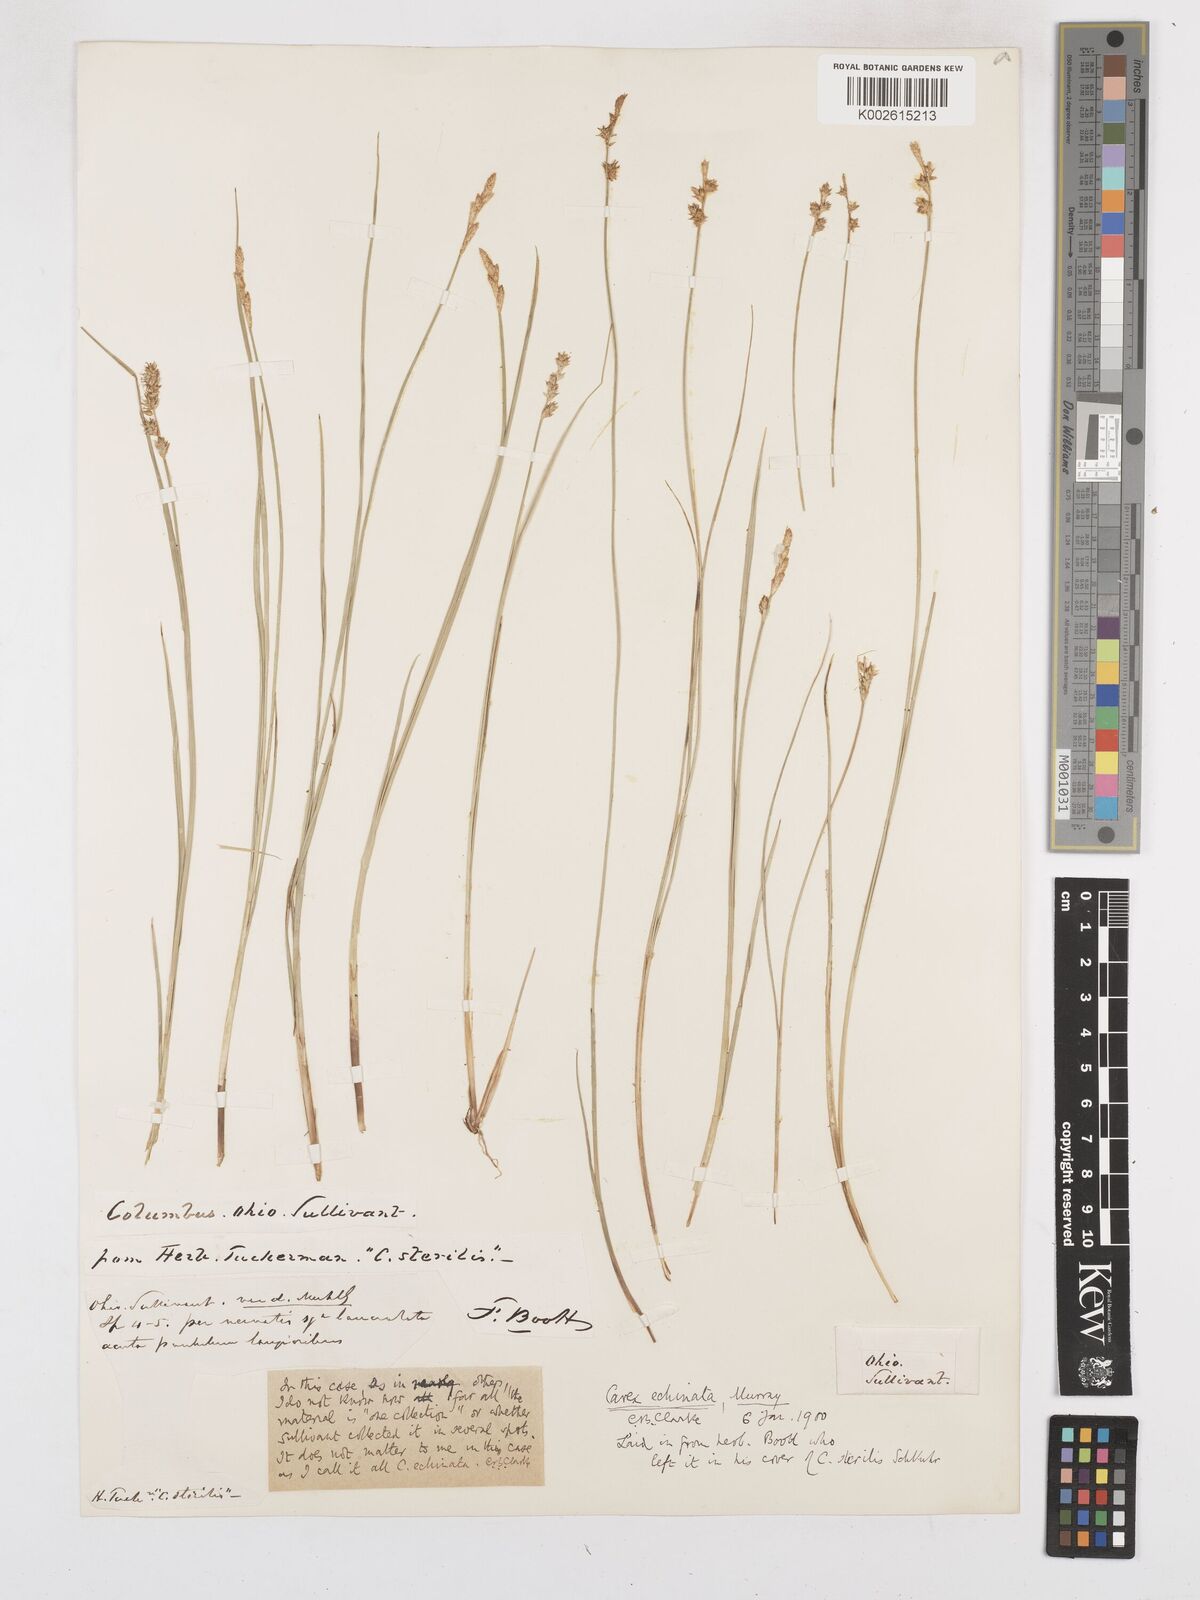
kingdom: Plantae
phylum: Tracheophyta
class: Liliopsida
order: Poales
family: Cyperaceae
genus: Carex
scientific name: Carex echinata
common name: Star sedge
